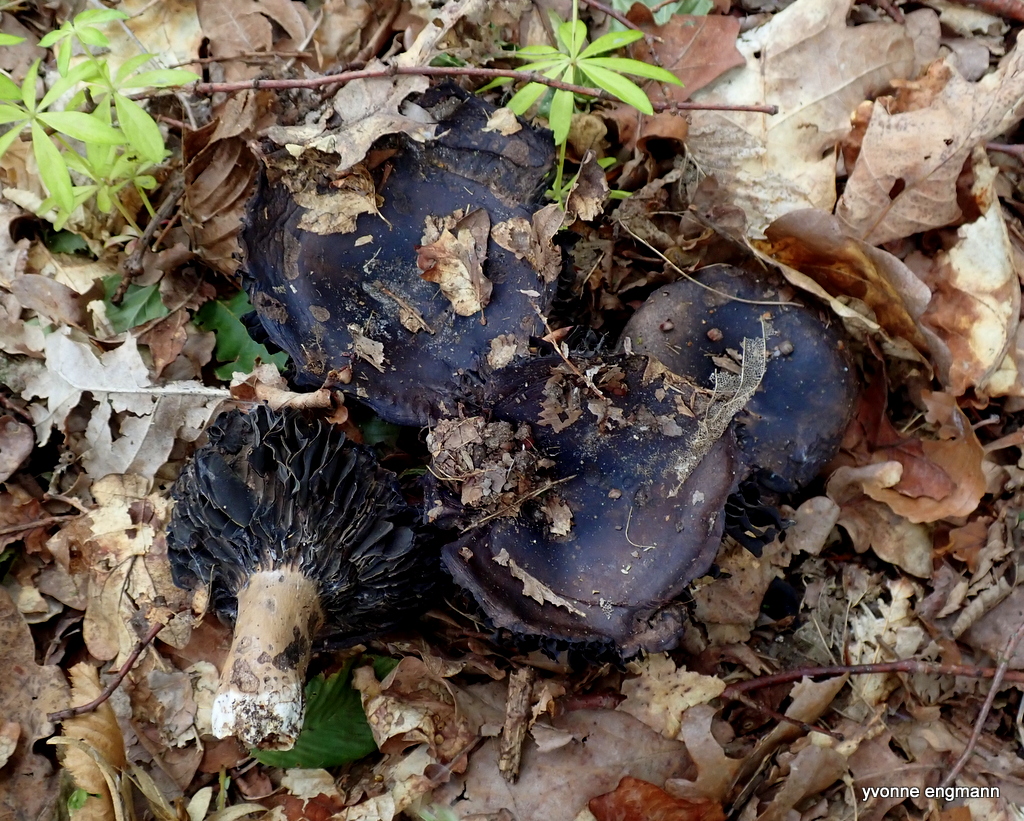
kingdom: Fungi
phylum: Basidiomycota
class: Agaricomycetes
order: Russulales
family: Russulaceae
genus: Russula
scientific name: Russula adusta
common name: sværtende skørhat
